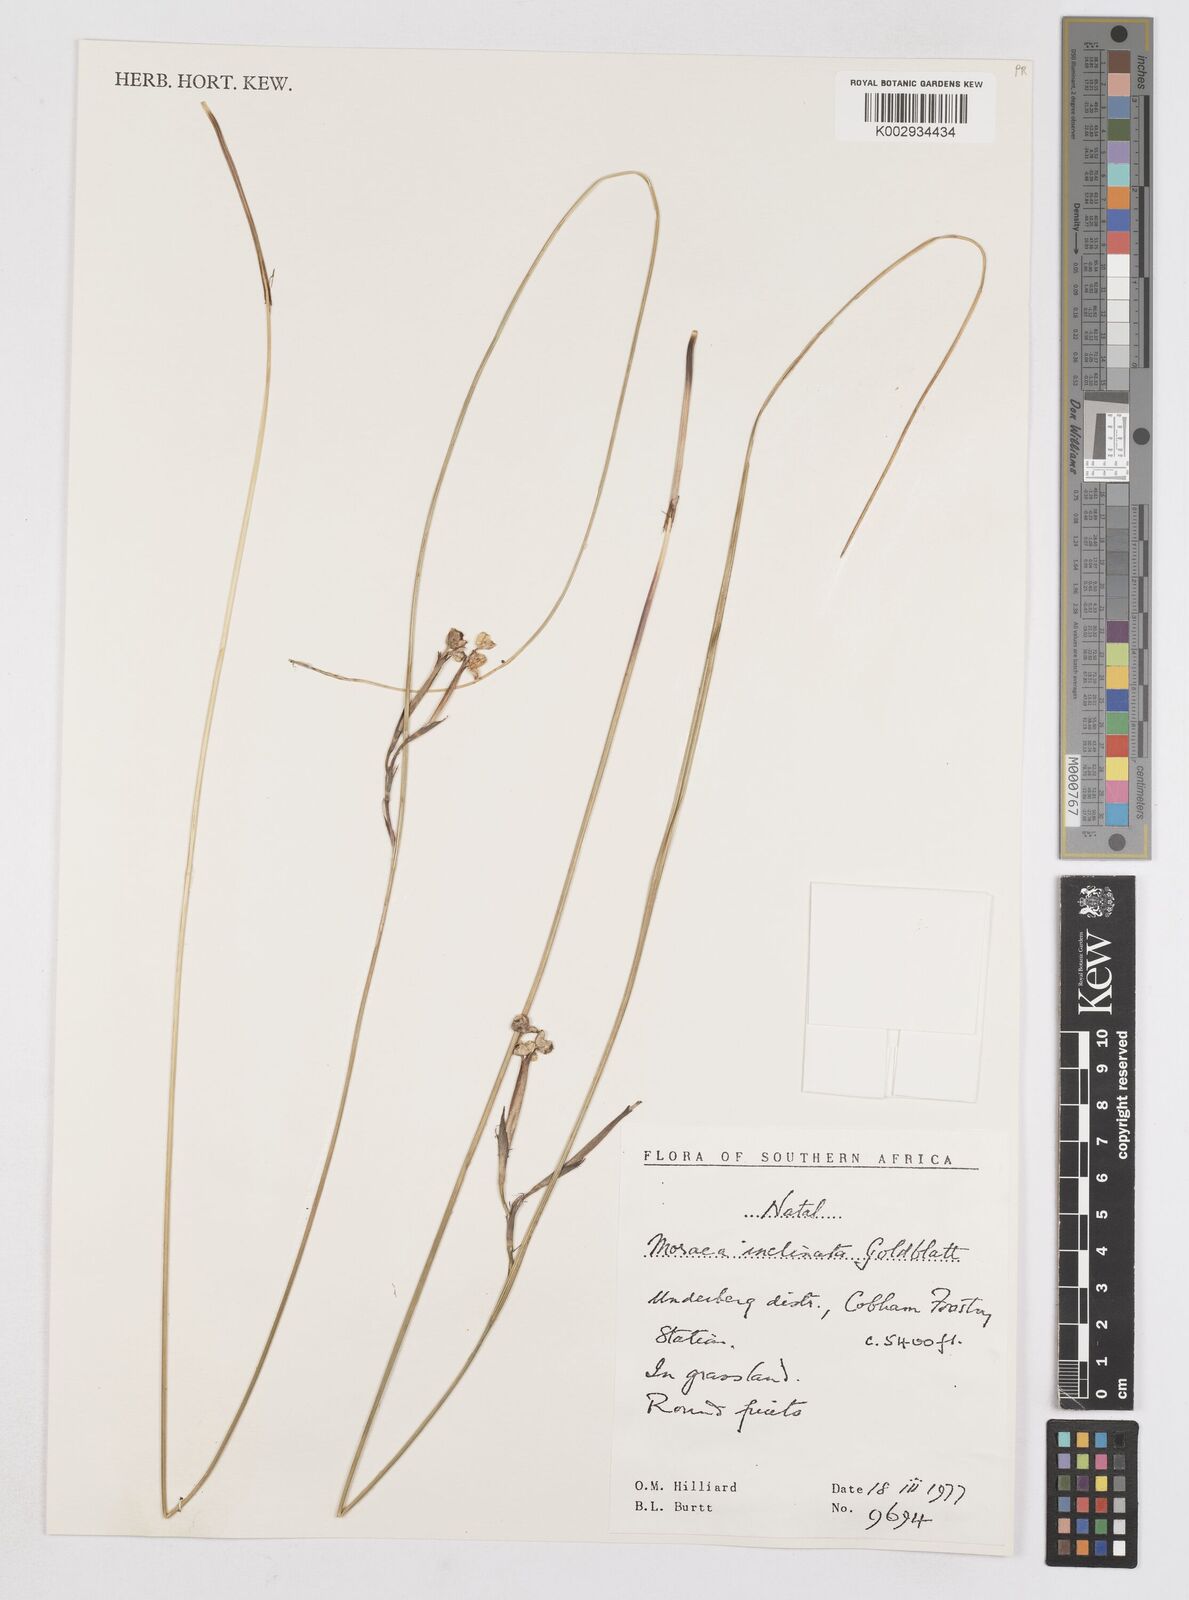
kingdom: Plantae
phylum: Tracheophyta
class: Liliopsida
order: Asparagales
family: Iridaceae
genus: Moraea
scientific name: Moraea inclinata
